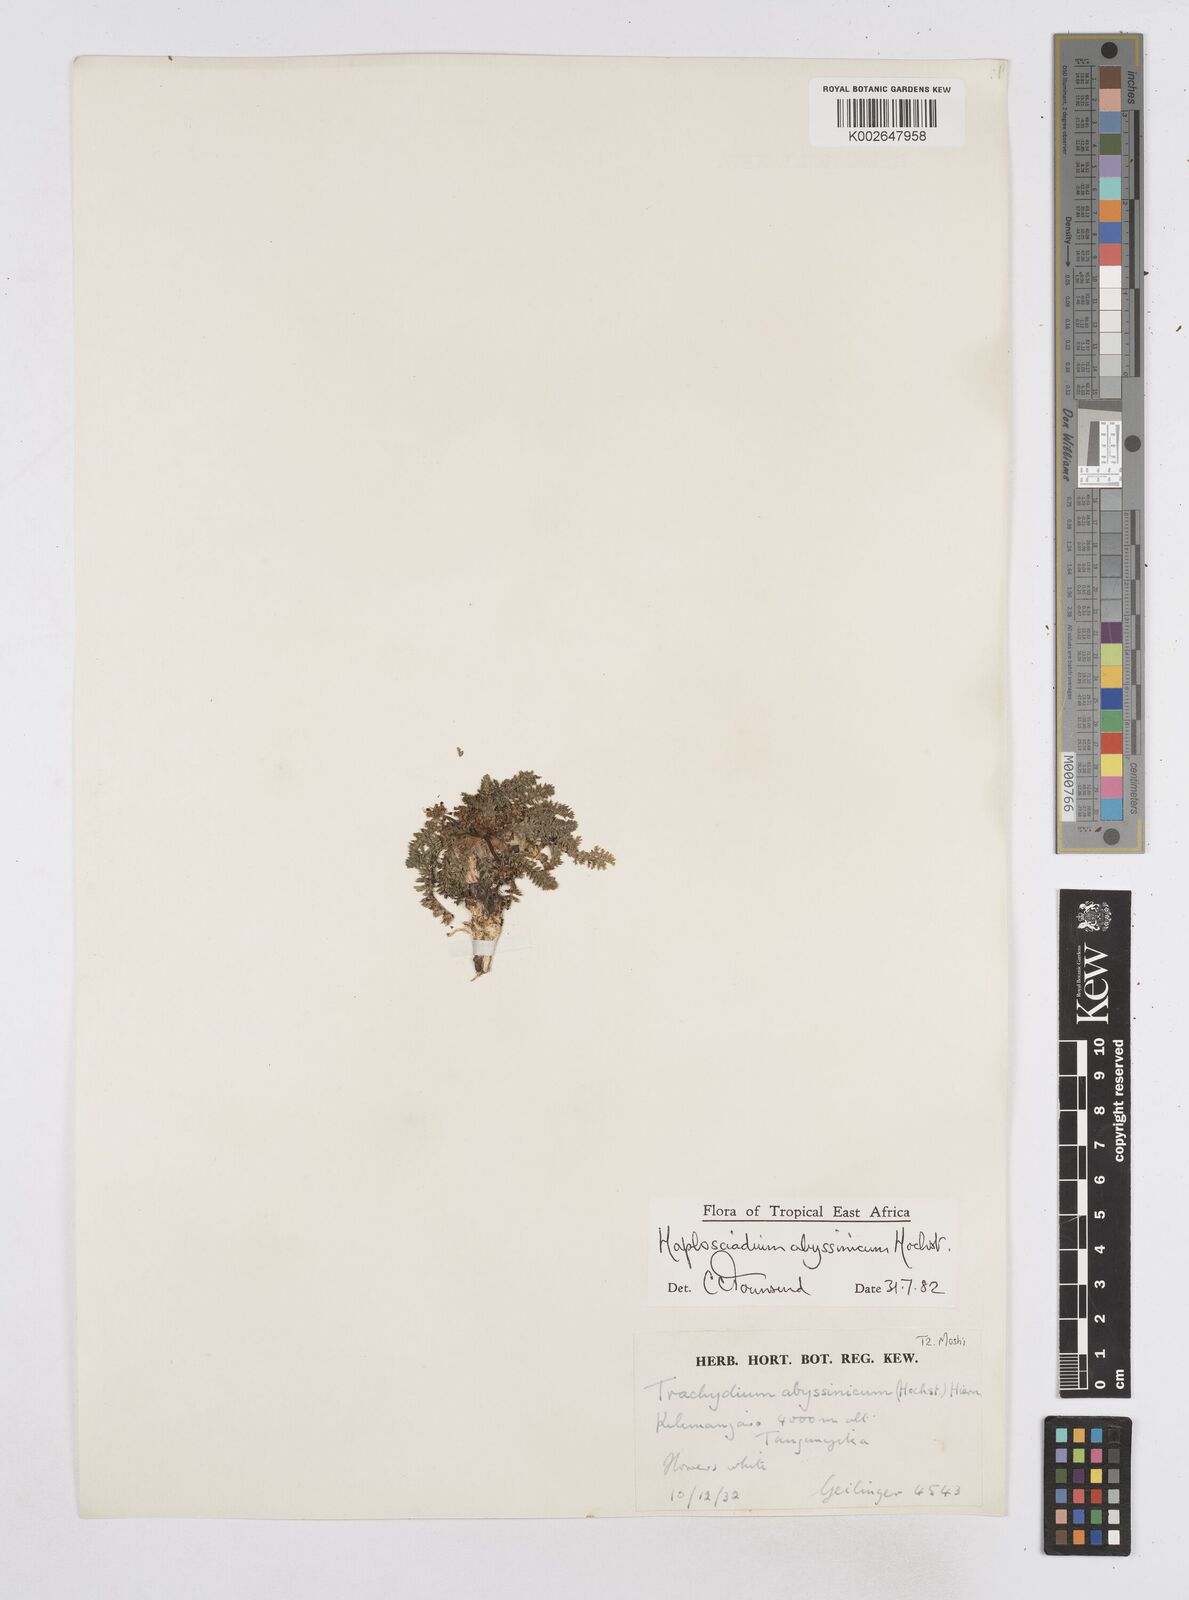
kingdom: Plantae
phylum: Tracheophyta
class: Magnoliopsida
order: Apiales
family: Apiaceae
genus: Haplosciadium
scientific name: Haplosciadium abyssinicum
